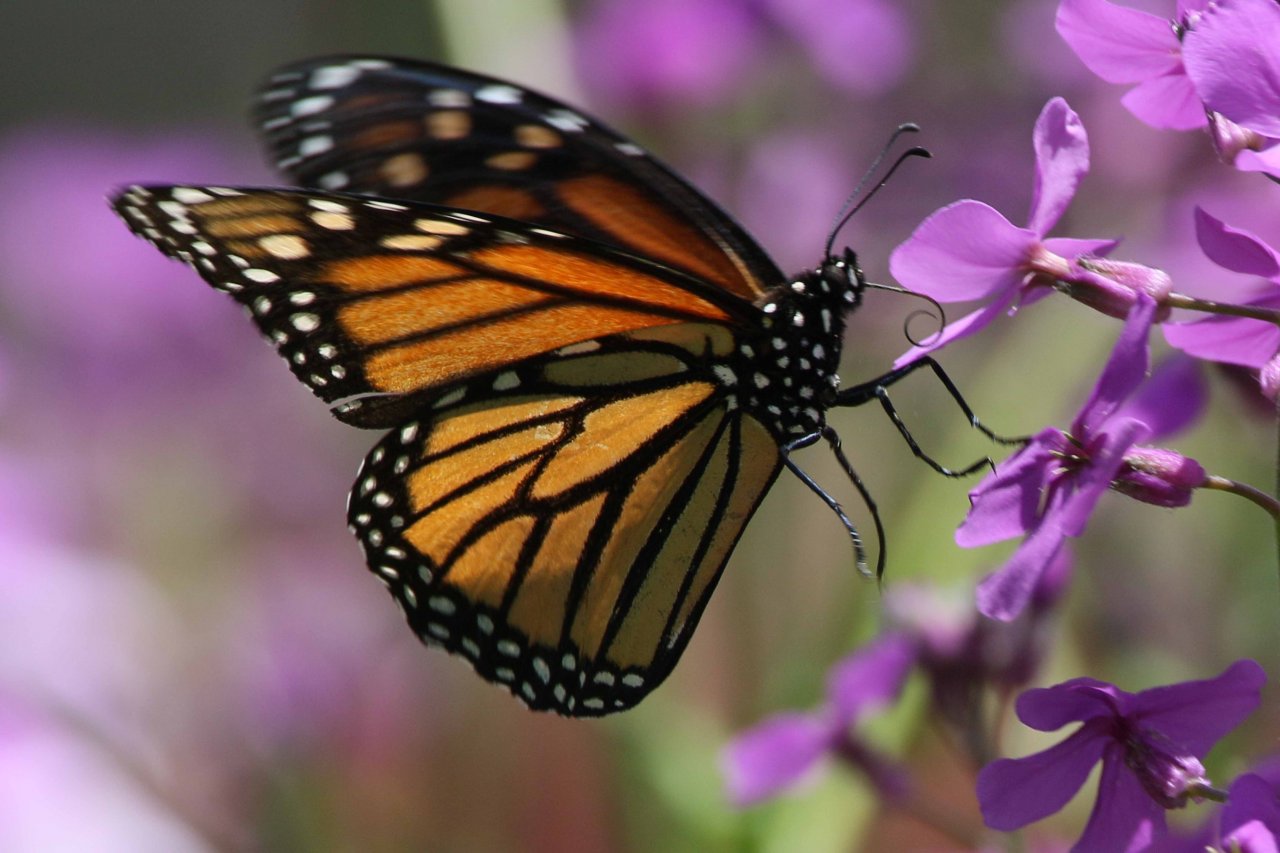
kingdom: Animalia
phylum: Arthropoda
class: Insecta
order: Lepidoptera
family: Nymphalidae
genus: Danaus
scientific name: Danaus plexippus
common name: Monarch
